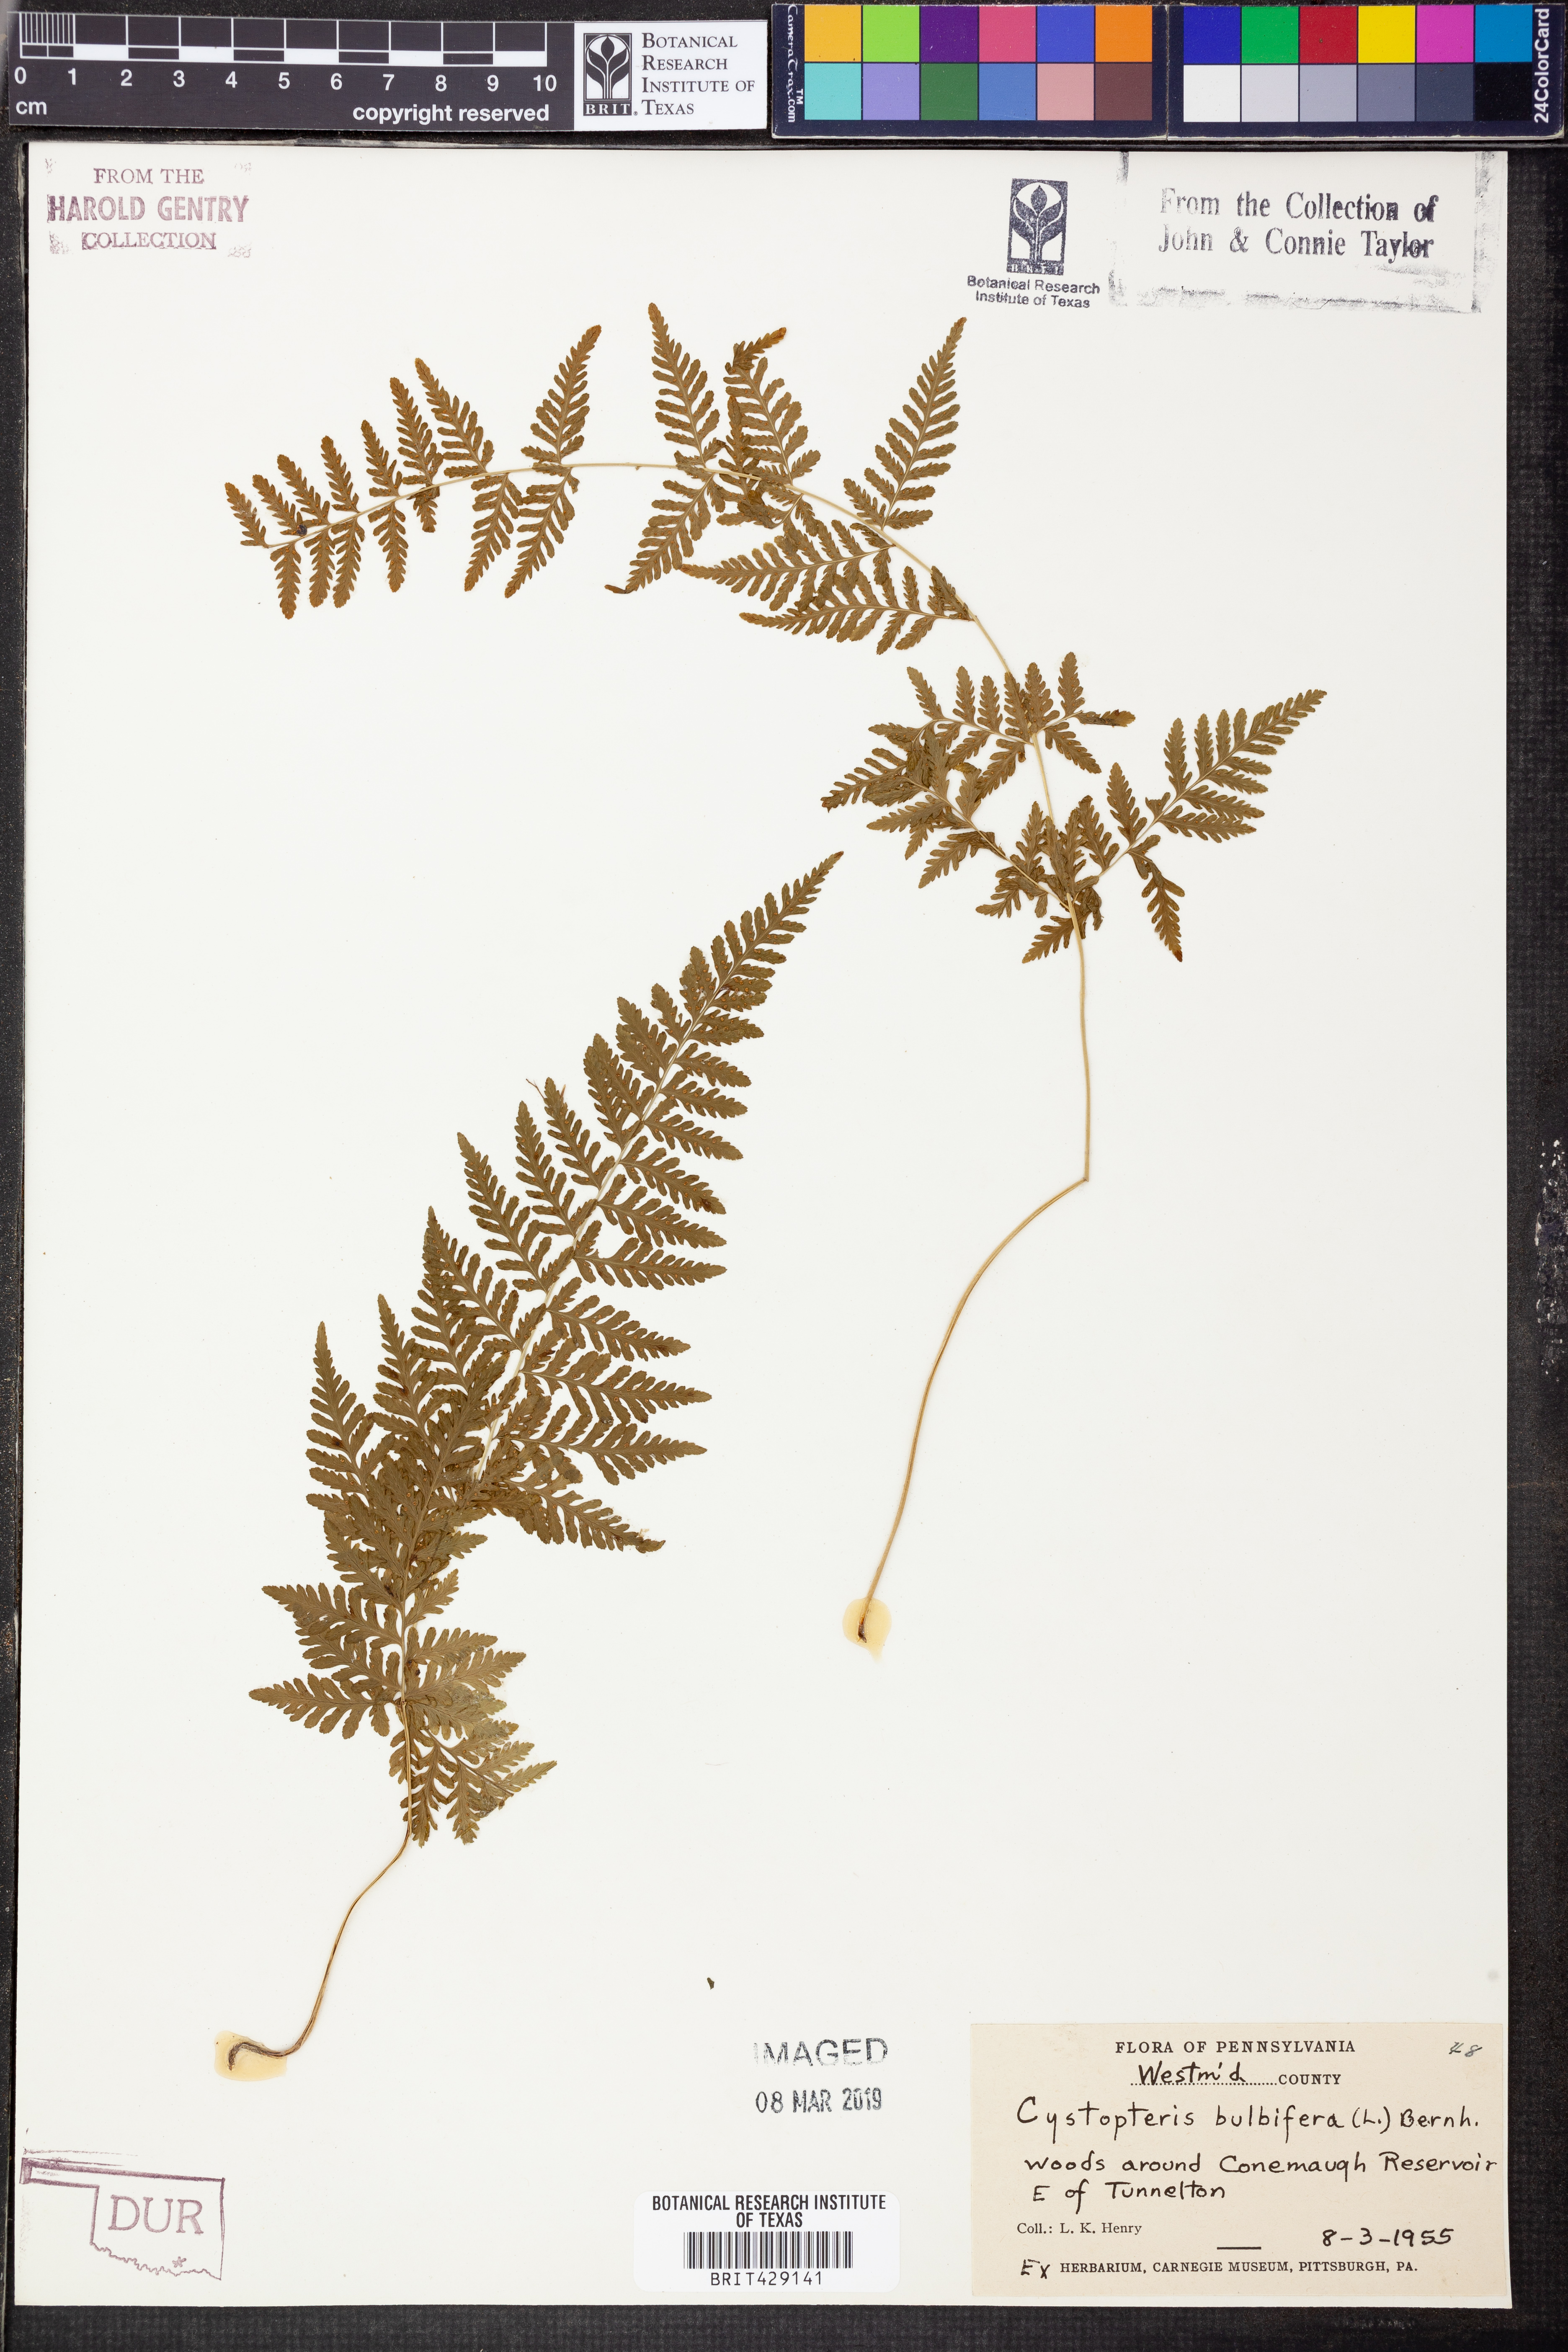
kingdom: Plantae
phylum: Tracheophyta
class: Polypodiopsida
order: Polypodiales
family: Cystopteridaceae
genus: Cystopteris
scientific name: Cystopteris bulbifera
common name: Bulblet bladder fern
